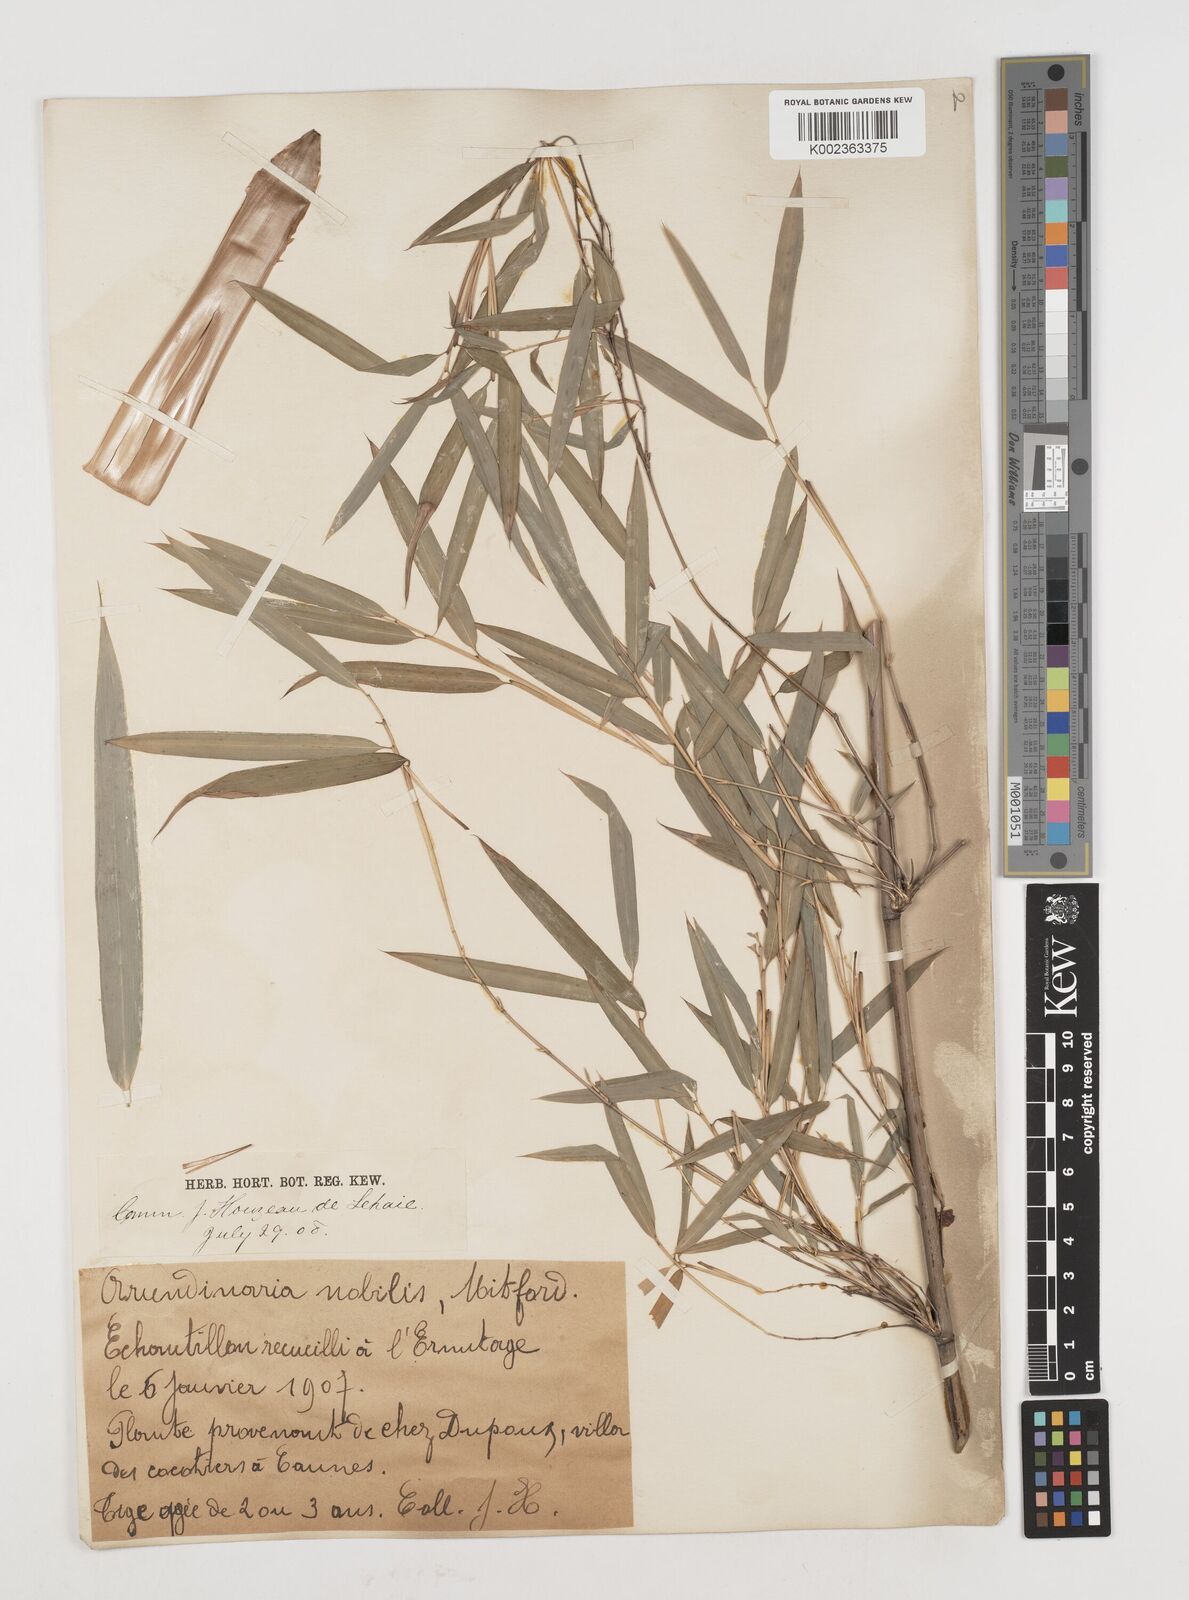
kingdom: Plantae
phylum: Tracheophyta
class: Liliopsida
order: Poales
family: Poaceae
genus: Himalayacalamus
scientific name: Himalayacalamus falconeri
